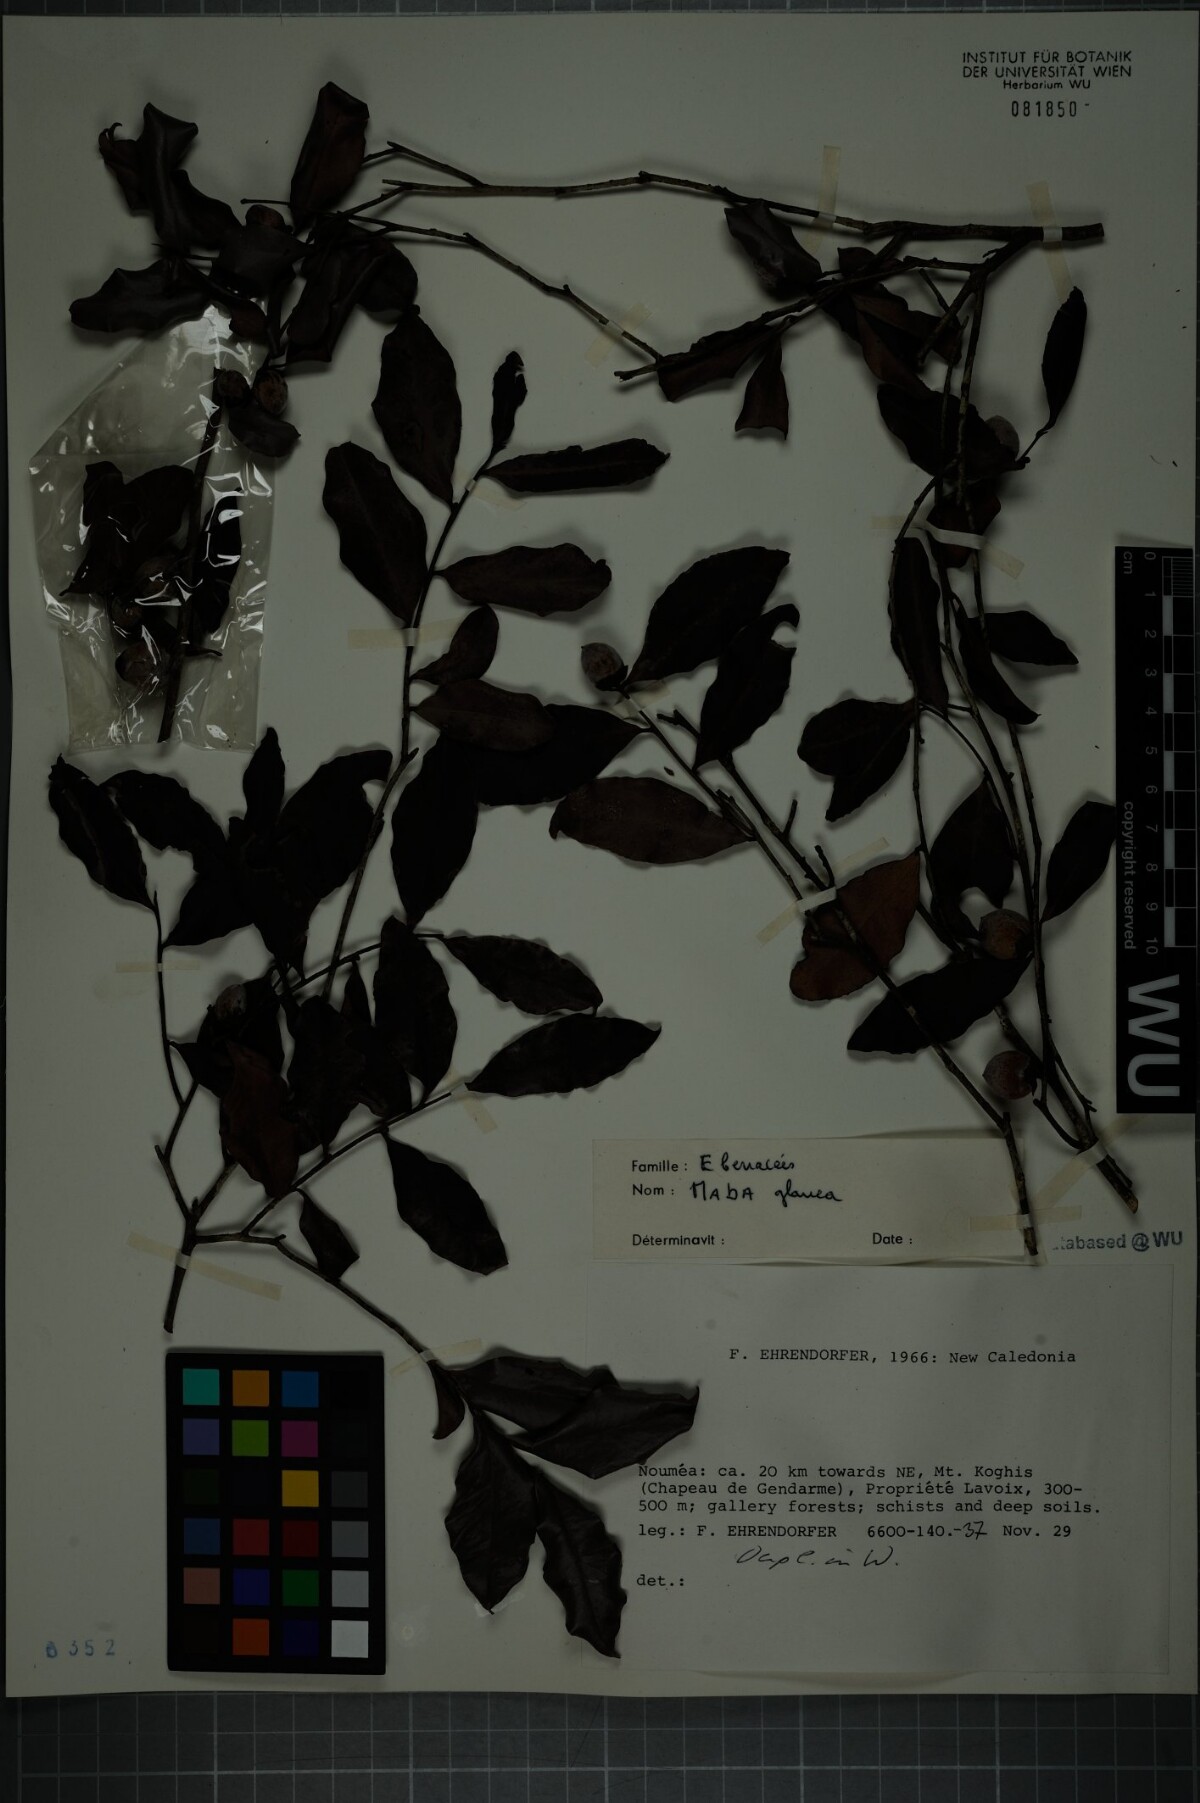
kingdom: Plantae
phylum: Tracheophyta
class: Magnoliopsida
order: Ericales
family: Ebenaceae
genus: Diospyros
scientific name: Diospyros vieillardii
